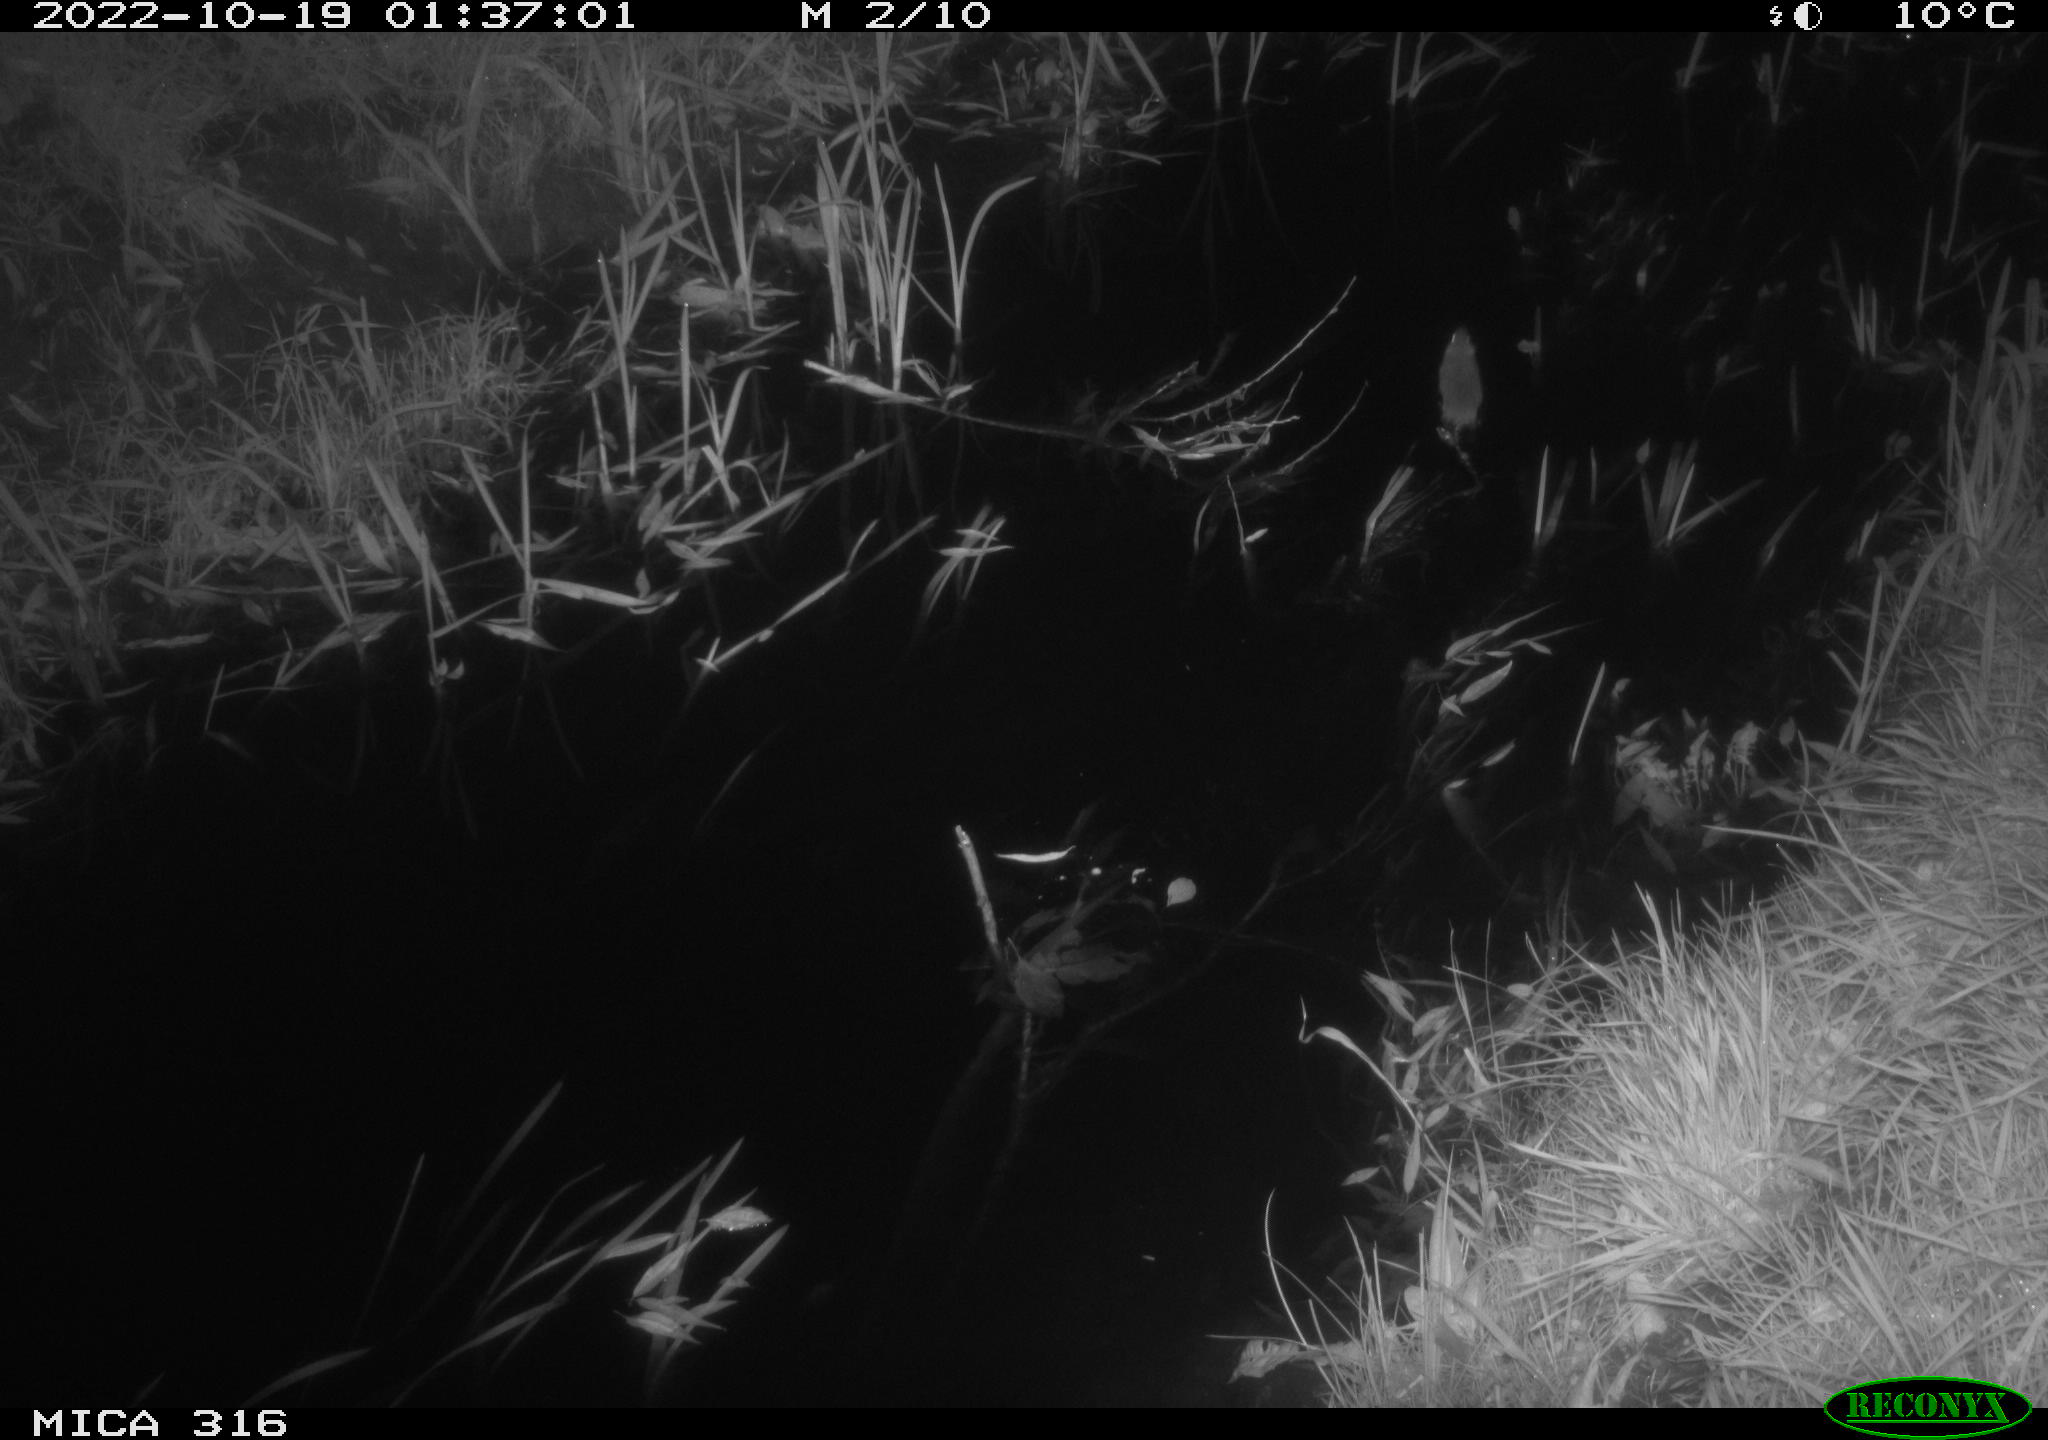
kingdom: Animalia
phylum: Chordata
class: Mammalia
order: Rodentia
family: Muridae
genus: Rattus
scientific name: Rattus norvegicus
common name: Brown rat
